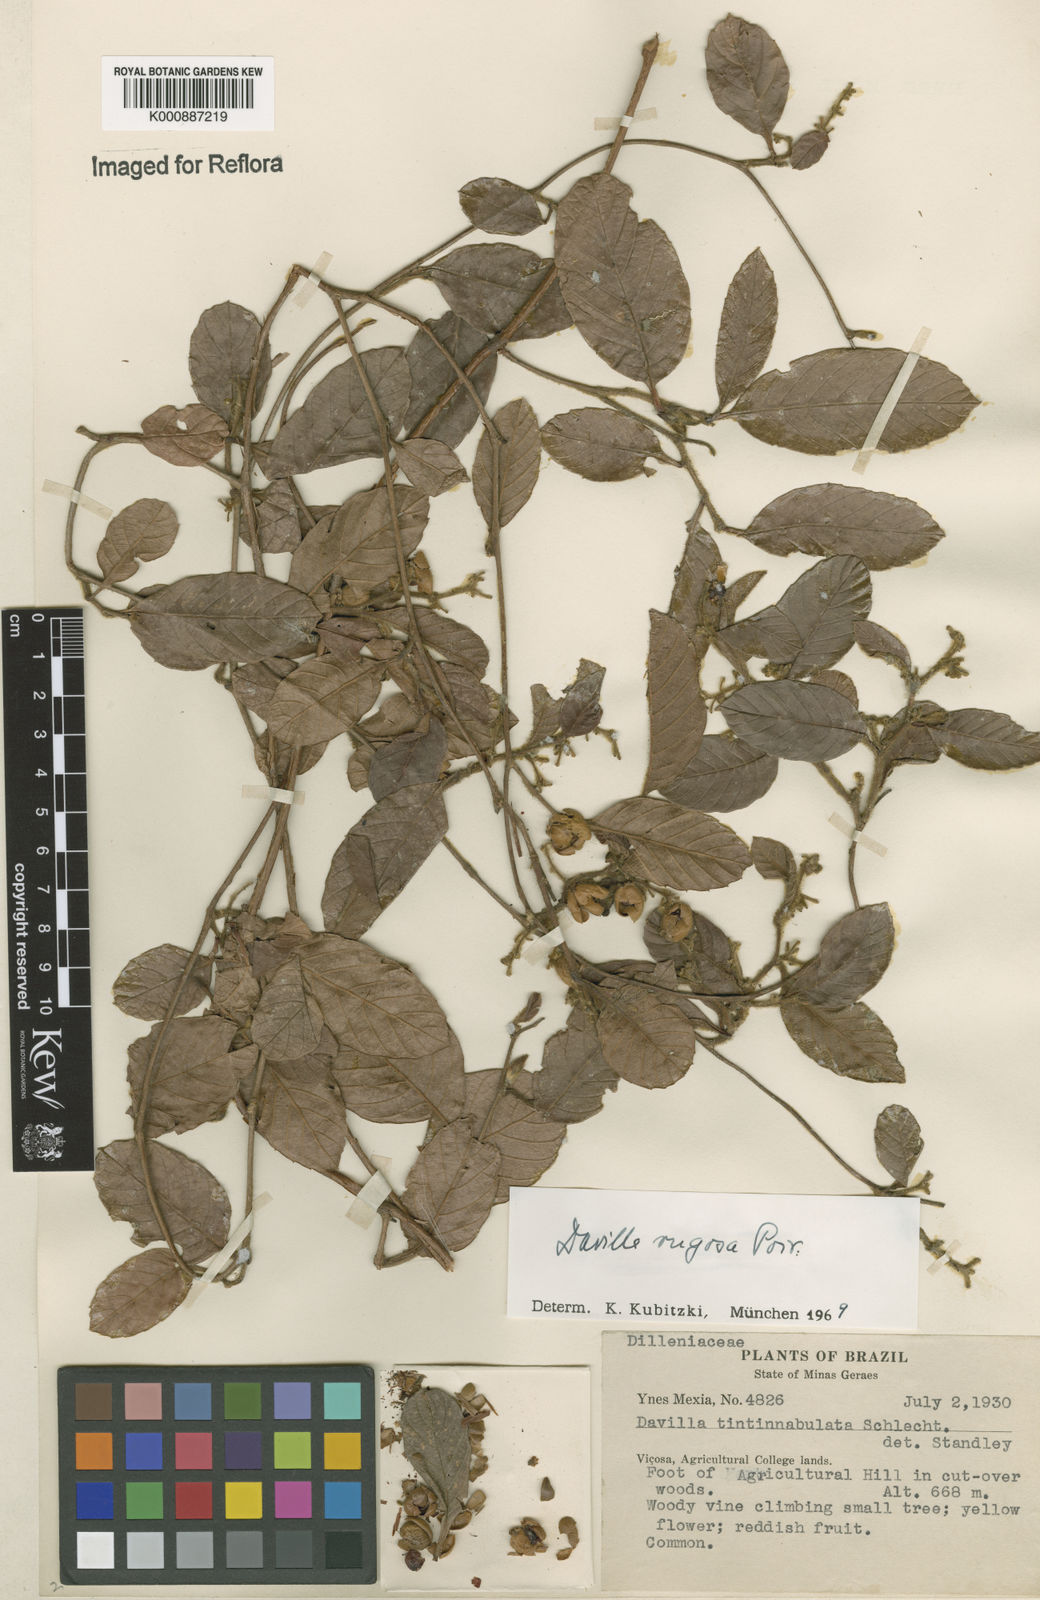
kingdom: Plantae
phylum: Tracheophyta
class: Magnoliopsida
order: Dilleniales
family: Dilleniaceae
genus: Davilla
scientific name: Davilla rugosa
